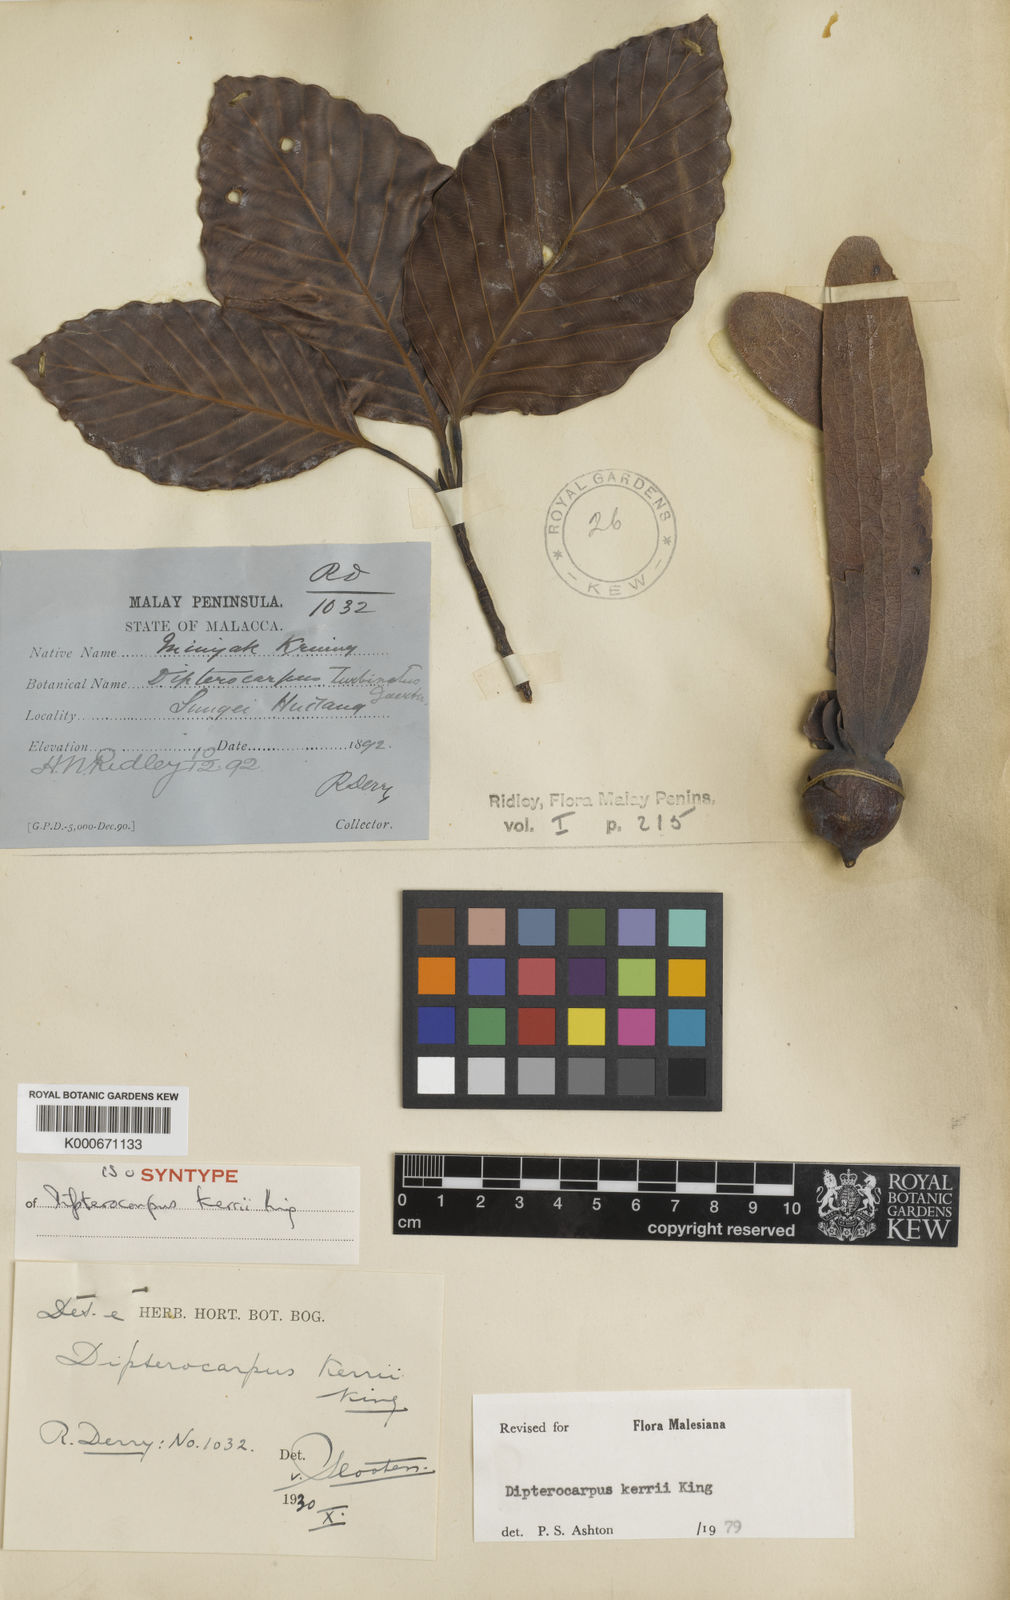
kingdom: Plantae
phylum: Tracheophyta
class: Magnoliopsida
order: Malvales
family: Dipterocarpaceae
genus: Dipterocarpus
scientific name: Dipterocarpus kerrii
